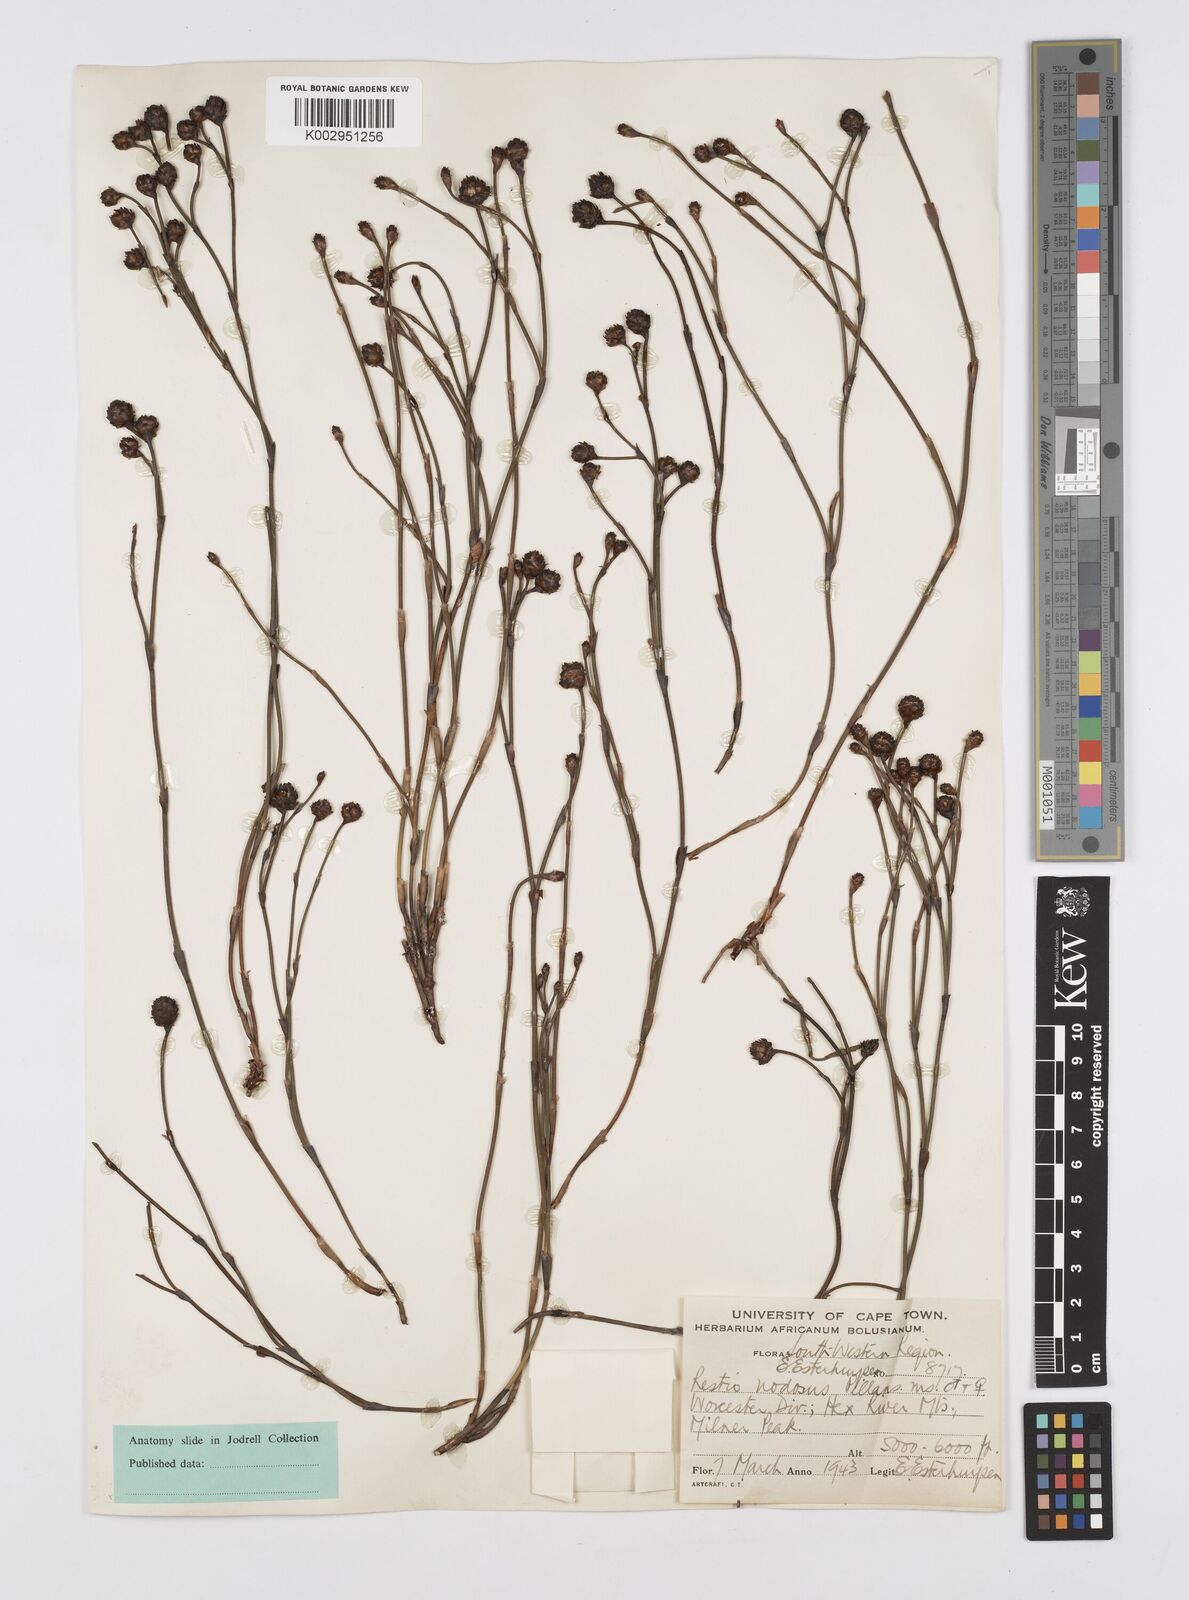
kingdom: Plantae
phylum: Tracheophyta
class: Liliopsida
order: Poales
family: Restionaceae
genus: Restio
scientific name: Restio nodosus
